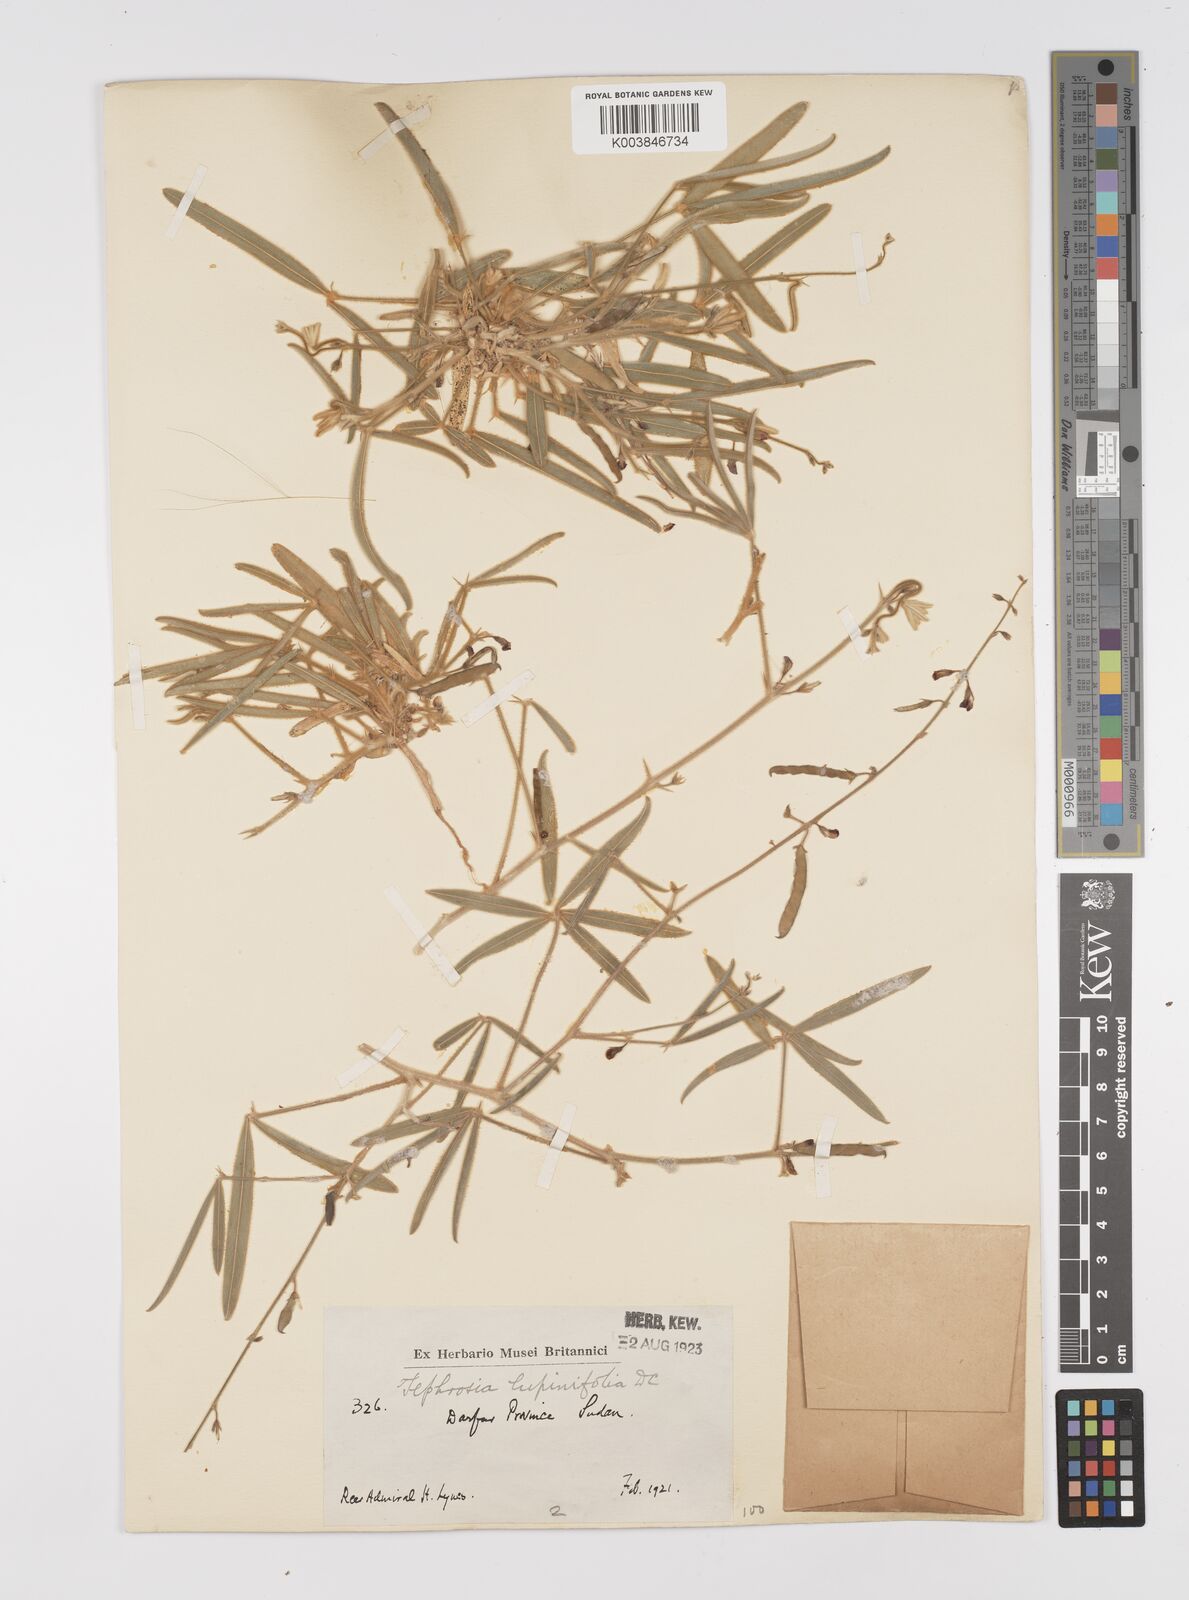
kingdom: Plantae
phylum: Tracheophyta
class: Magnoliopsida
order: Fabales
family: Fabaceae
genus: Tephrosia
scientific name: Tephrosia lupinifolia
